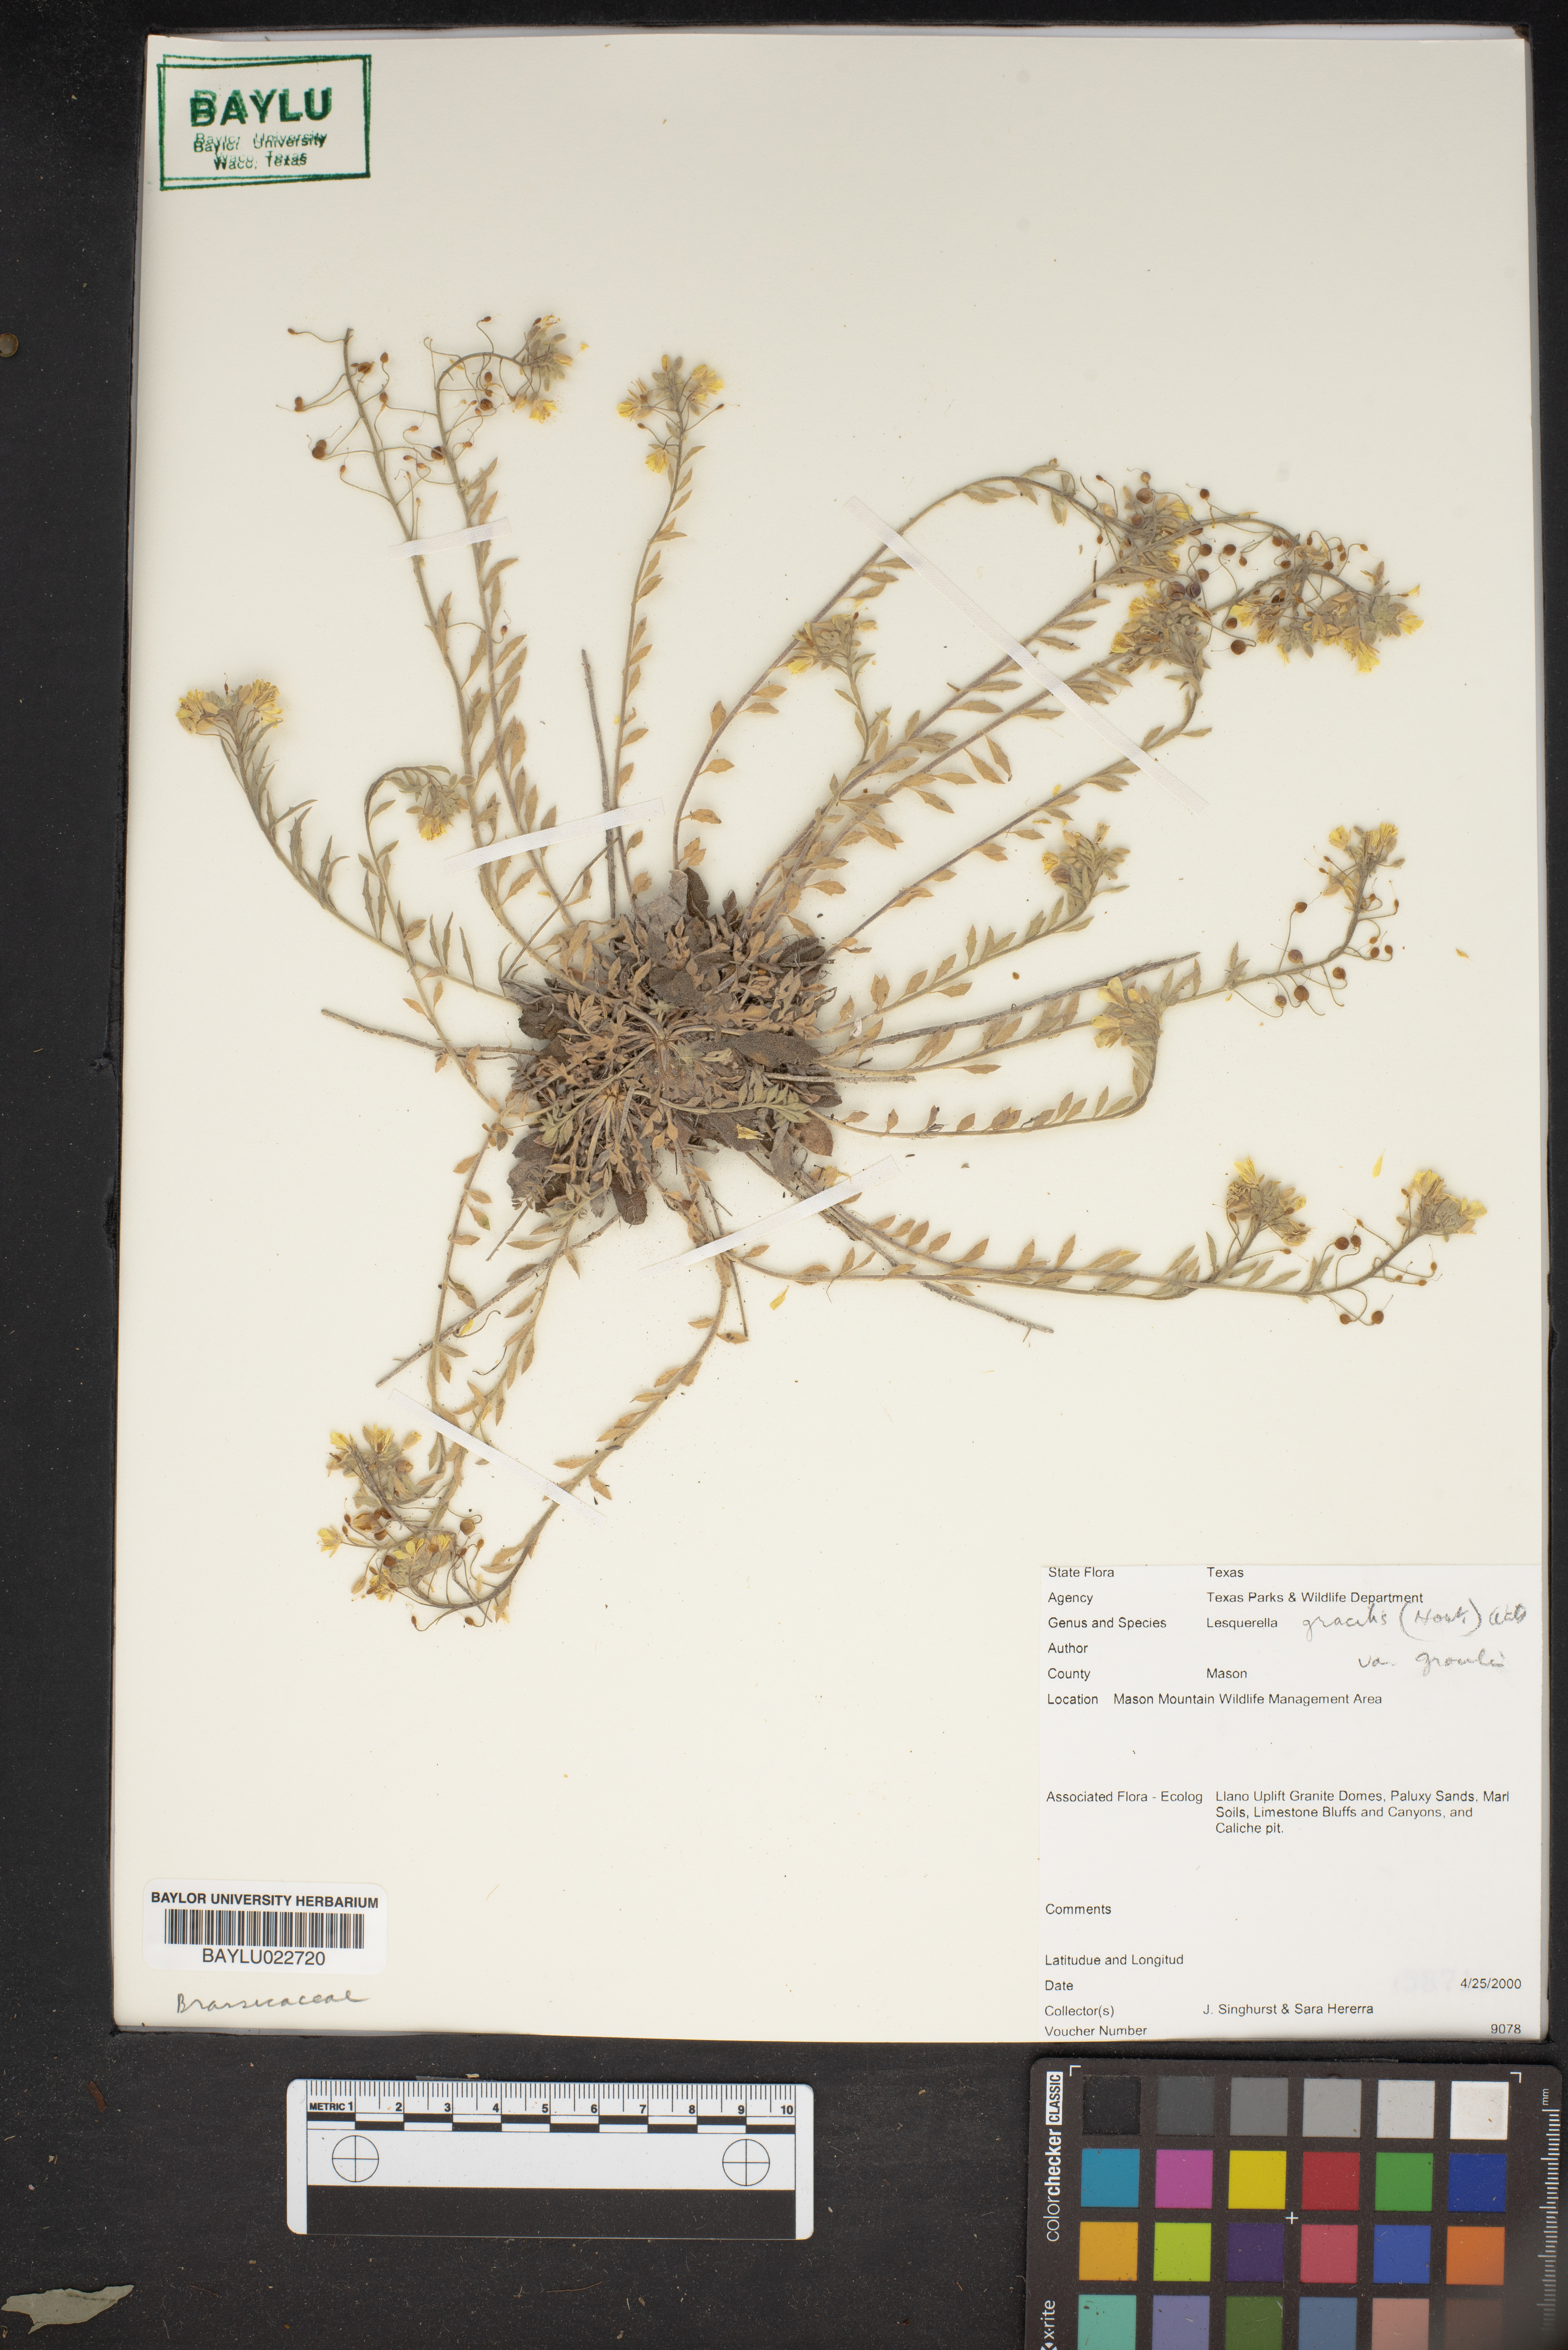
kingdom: Plantae
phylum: Tracheophyta
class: Magnoliopsida
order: Brassicales
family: Brassicaceae
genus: Physaria
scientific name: Physaria gracilis
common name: Spreading bladderpod
